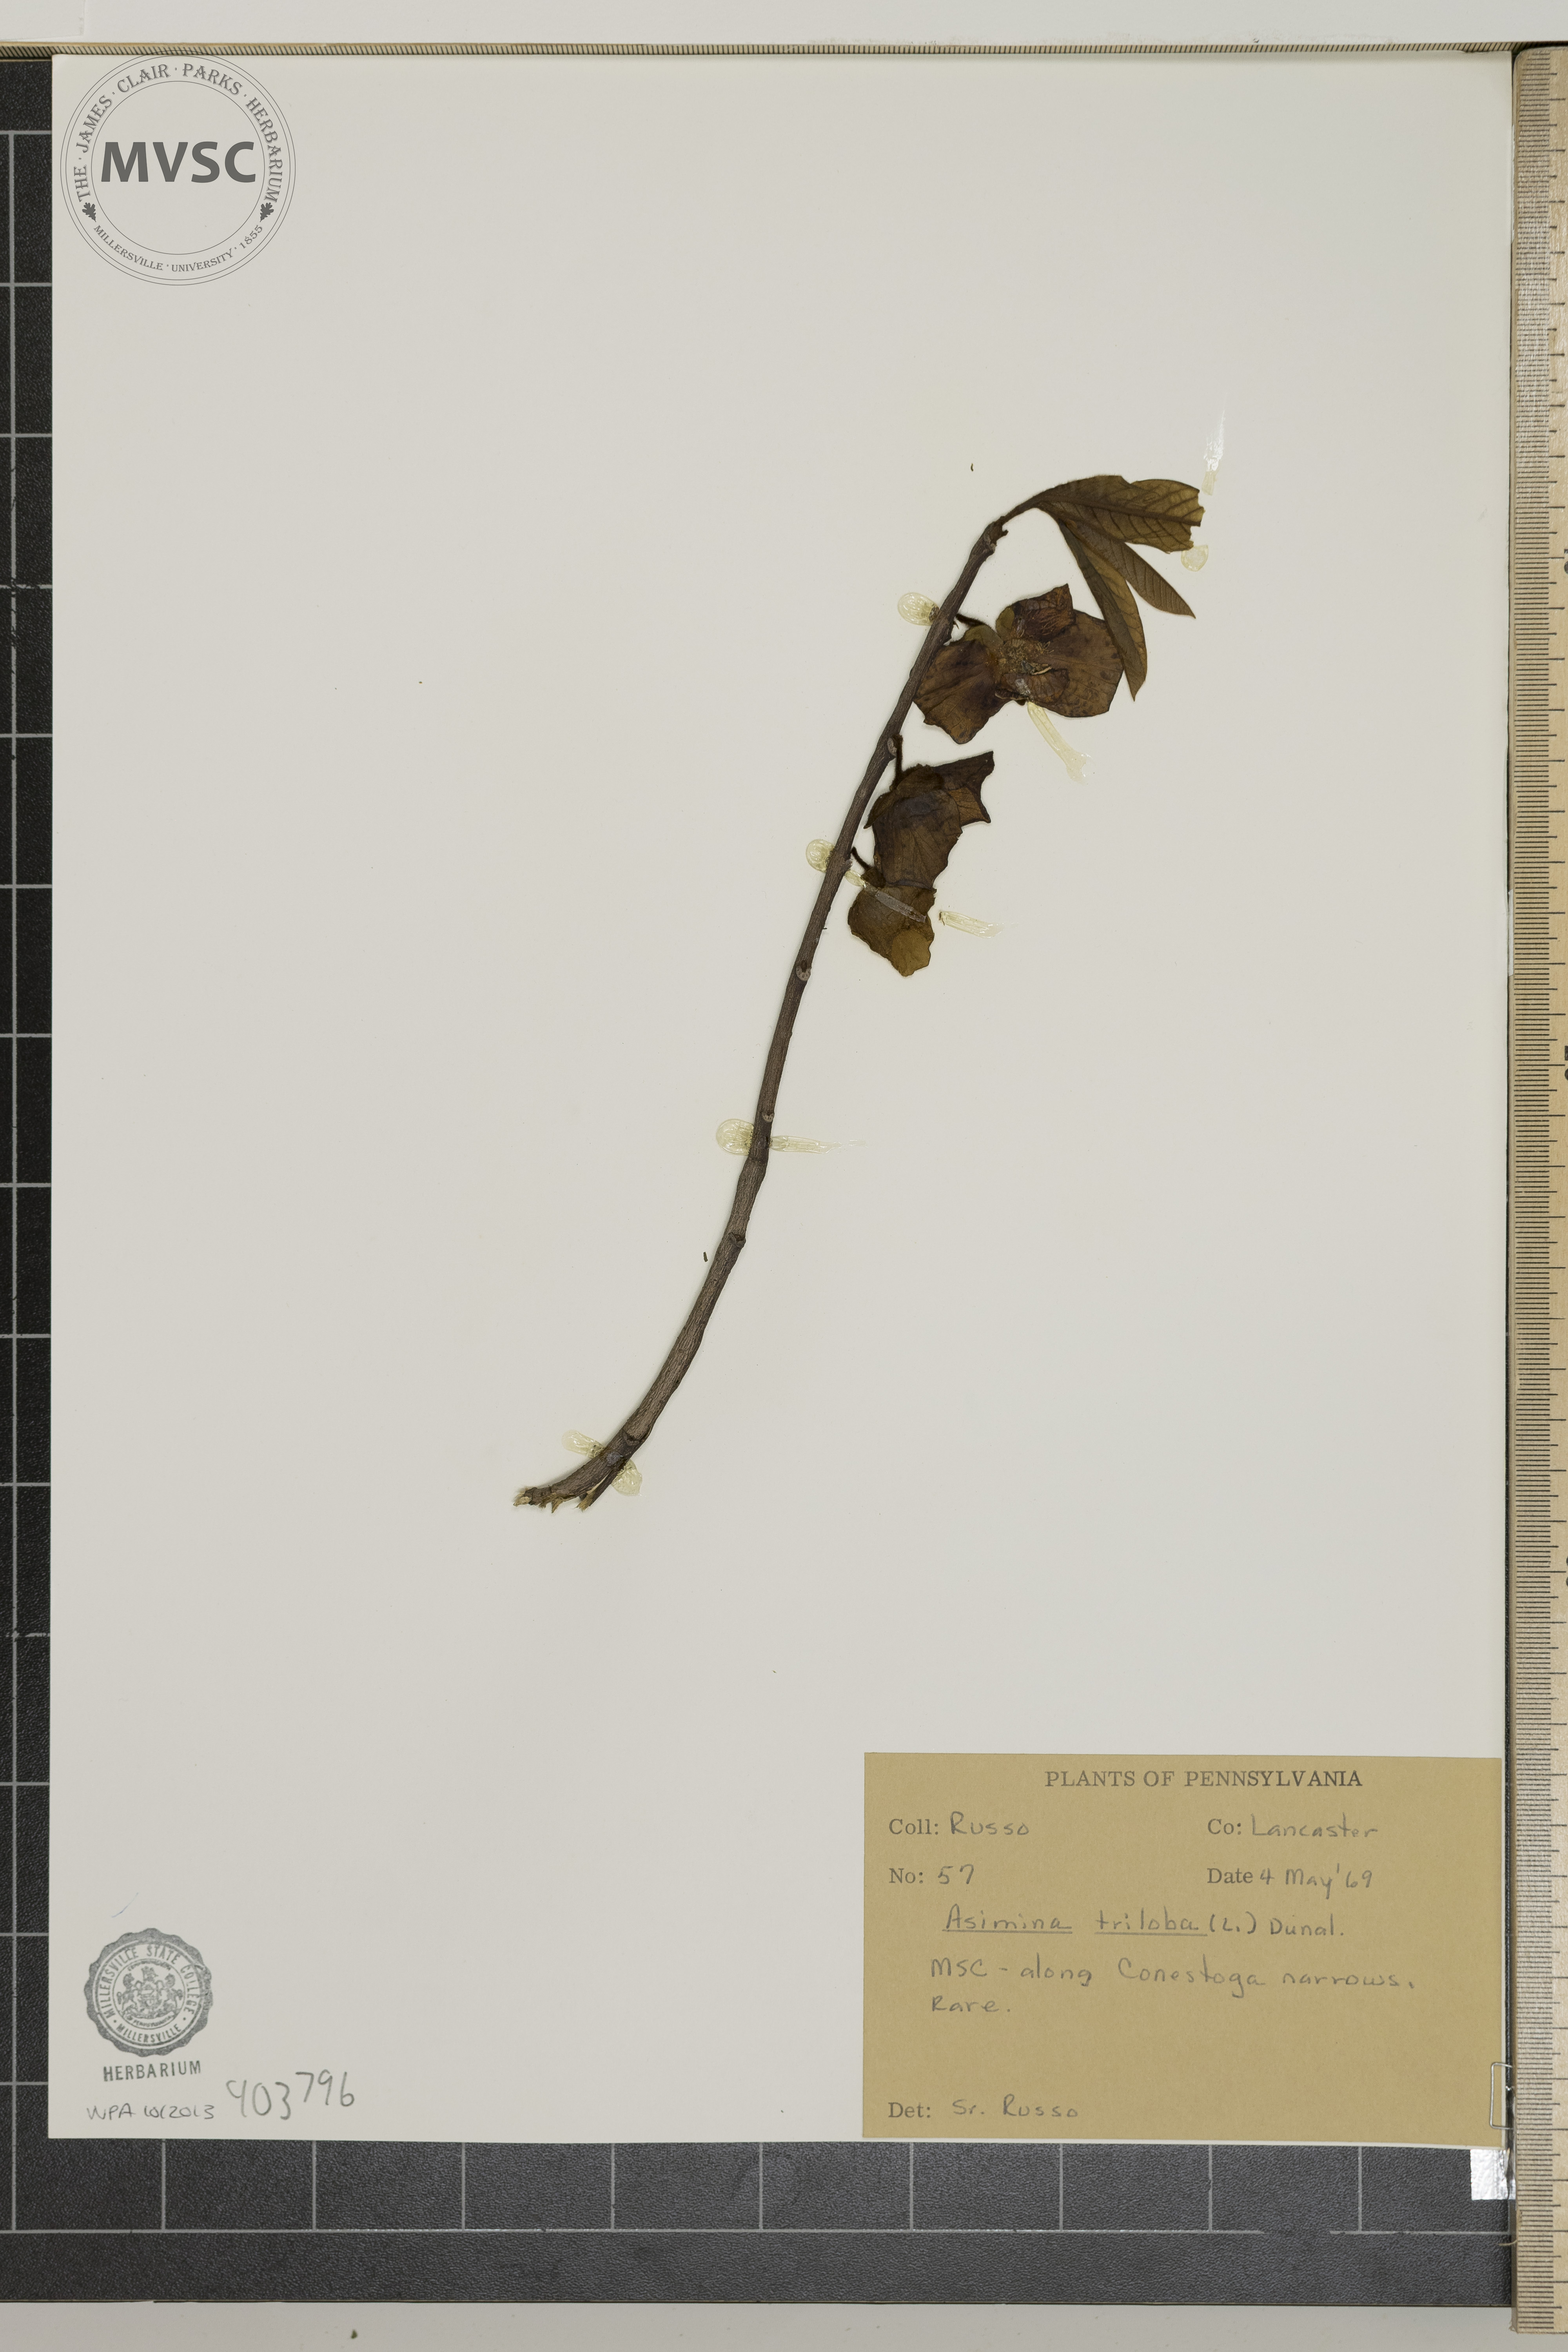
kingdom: Plantae
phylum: Tracheophyta
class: Magnoliopsida
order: Magnoliales
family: Annonaceae
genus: Asimina
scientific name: Asimina triloba
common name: Pawpaw
